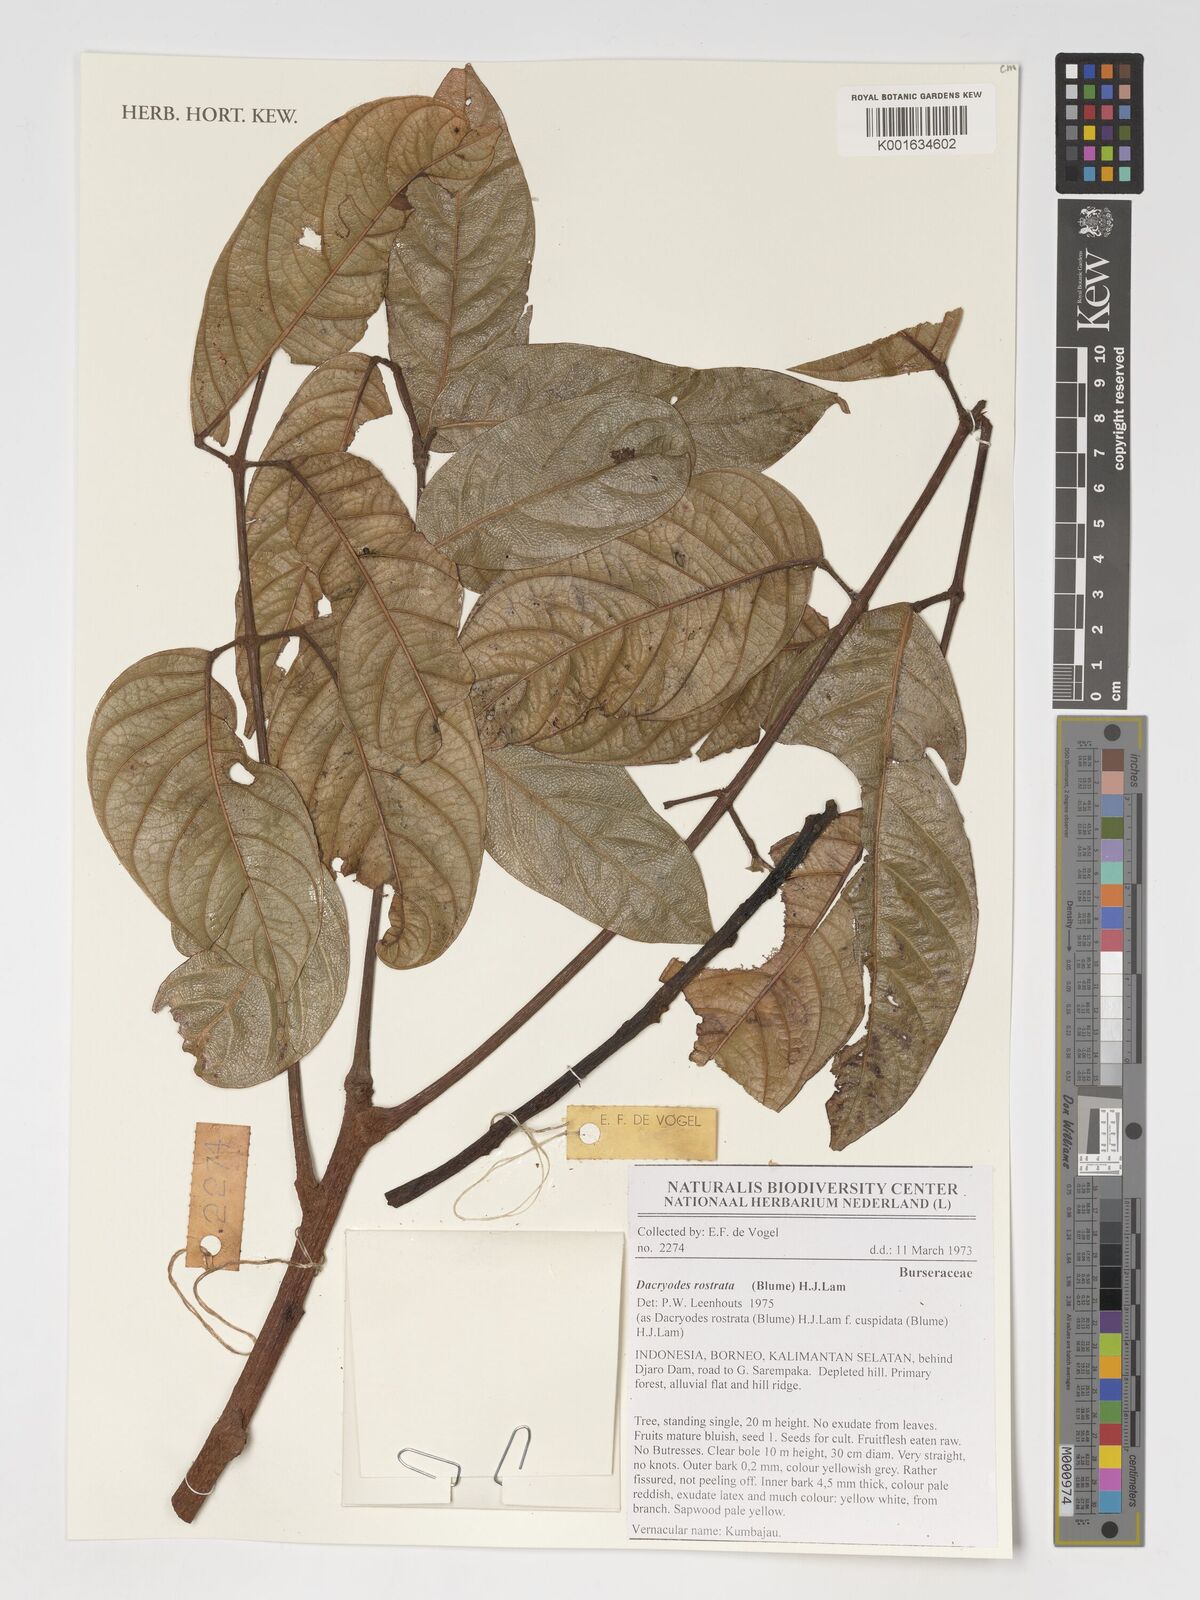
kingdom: Plantae
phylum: Tracheophyta
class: Magnoliopsida
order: Sapindales
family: Burseraceae
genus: Dacryodes
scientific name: Dacryodes rostrata
